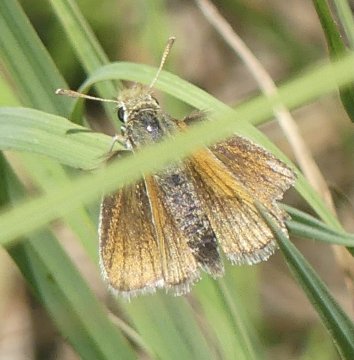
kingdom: Animalia
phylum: Arthropoda
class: Insecta
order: Lepidoptera
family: Hesperiidae
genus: Thymelicus
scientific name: Thymelicus lineola
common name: European Skipper
